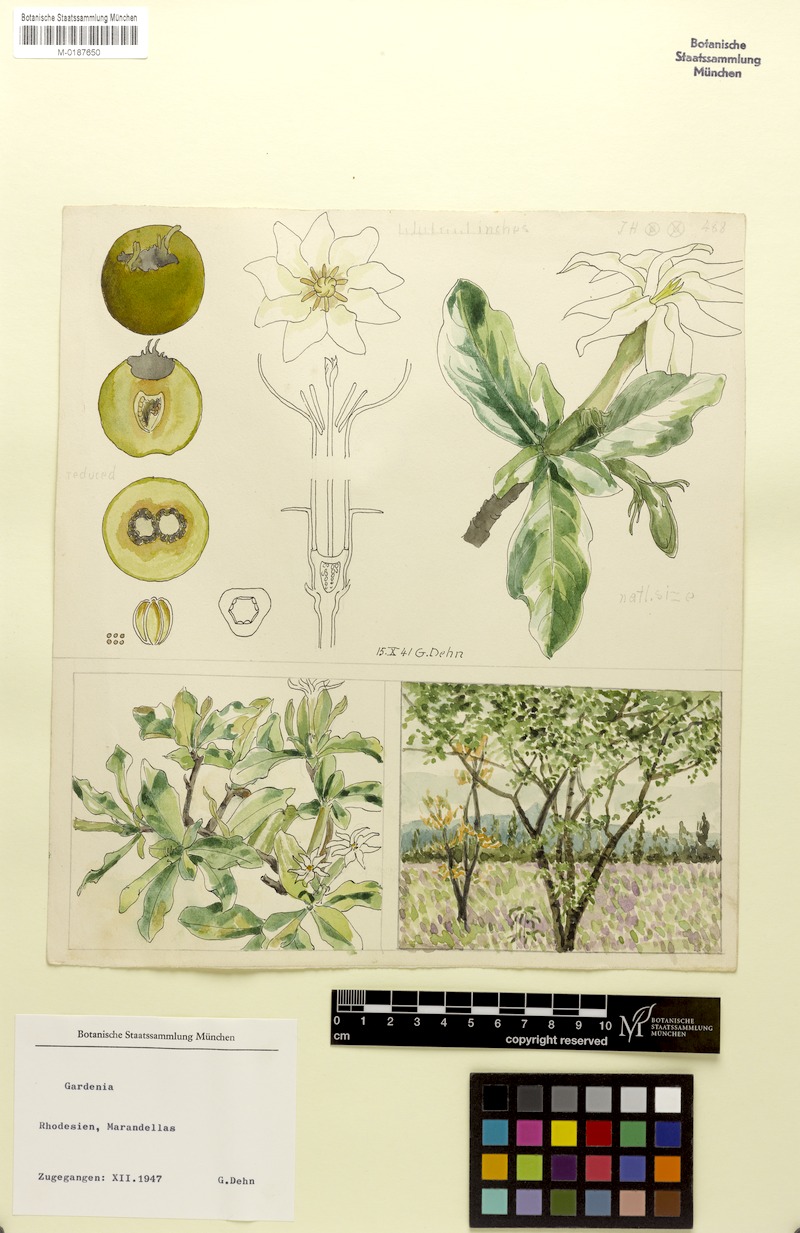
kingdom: Plantae
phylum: Tracheophyta
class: Magnoliopsida
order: Gentianales
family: Rubiaceae
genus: Gardenia
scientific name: Gardenia
